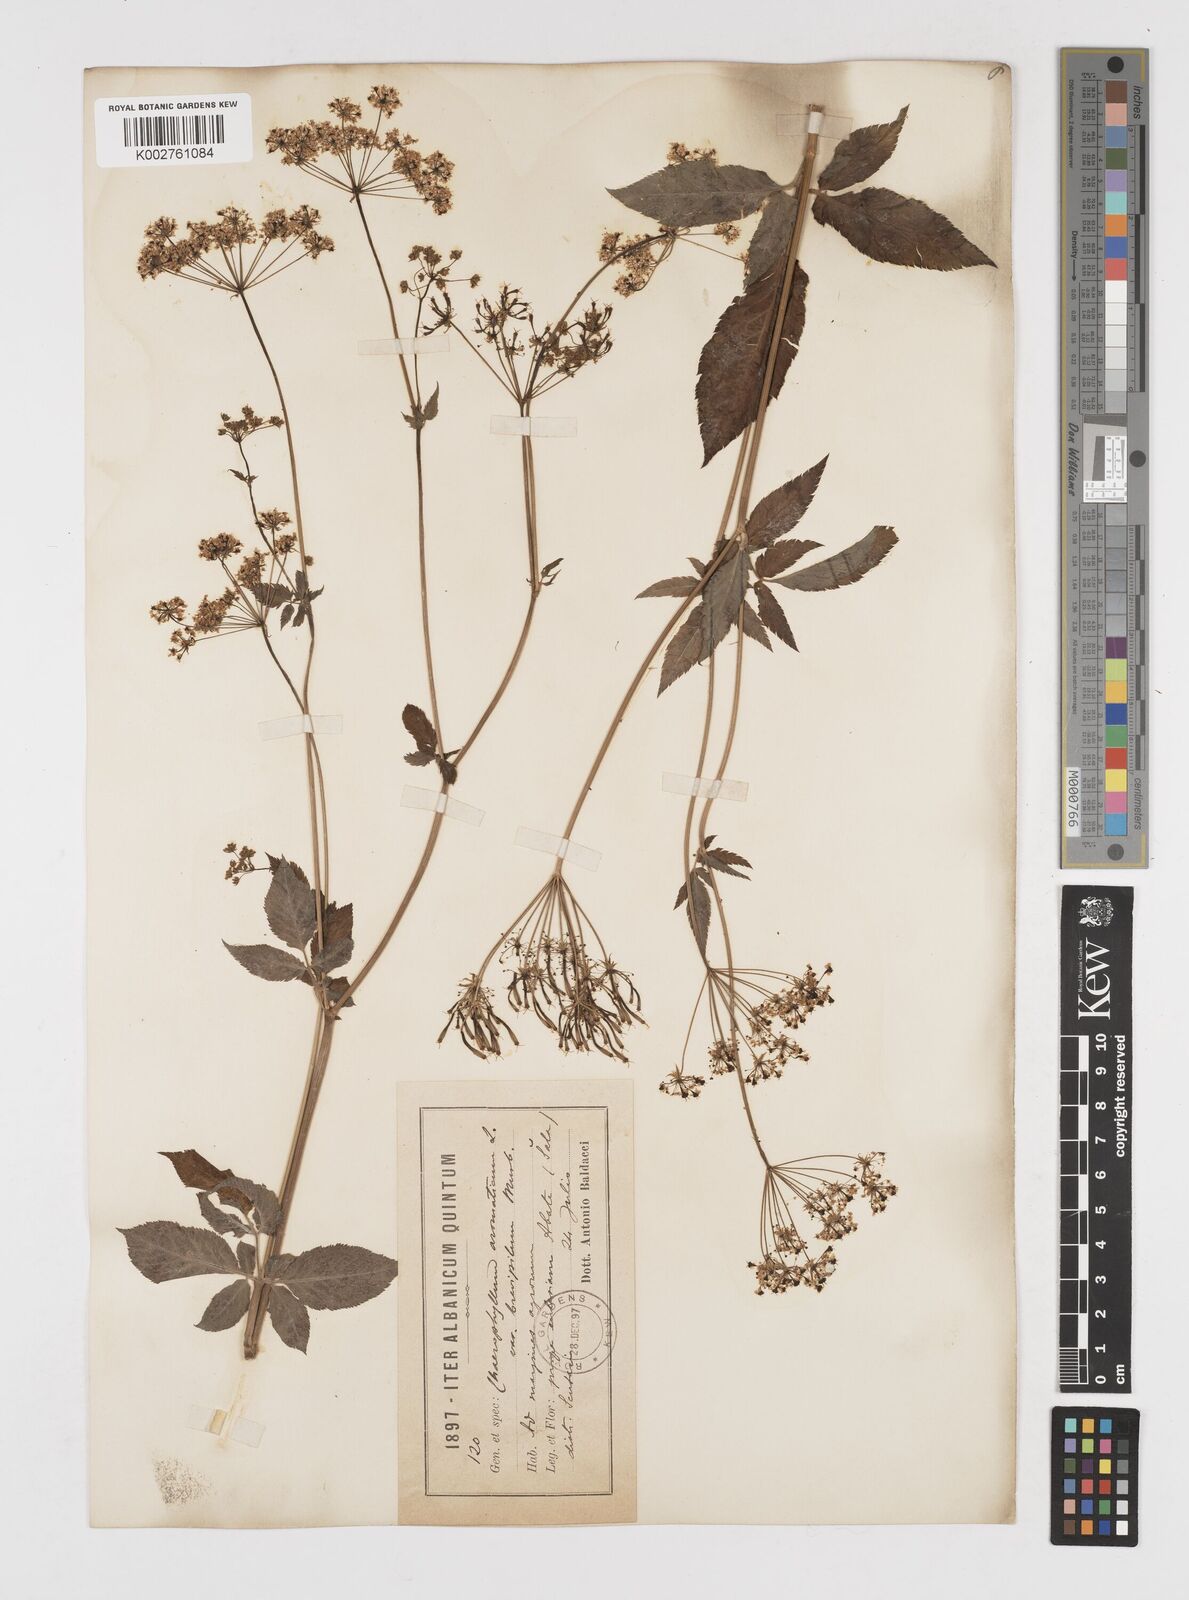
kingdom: Plantae
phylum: Tracheophyta
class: Magnoliopsida
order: Apiales
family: Apiaceae
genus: Chaerophyllum
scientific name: Chaerophyllum aromaticum
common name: Broadleaf chervil
